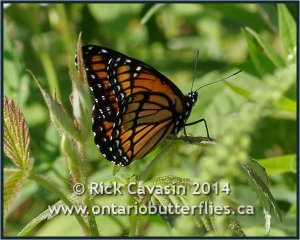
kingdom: Animalia
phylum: Arthropoda
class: Insecta
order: Lepidoptera
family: Nymphalidae
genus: Limenitis
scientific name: Limenitis archippus
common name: Viceroy
